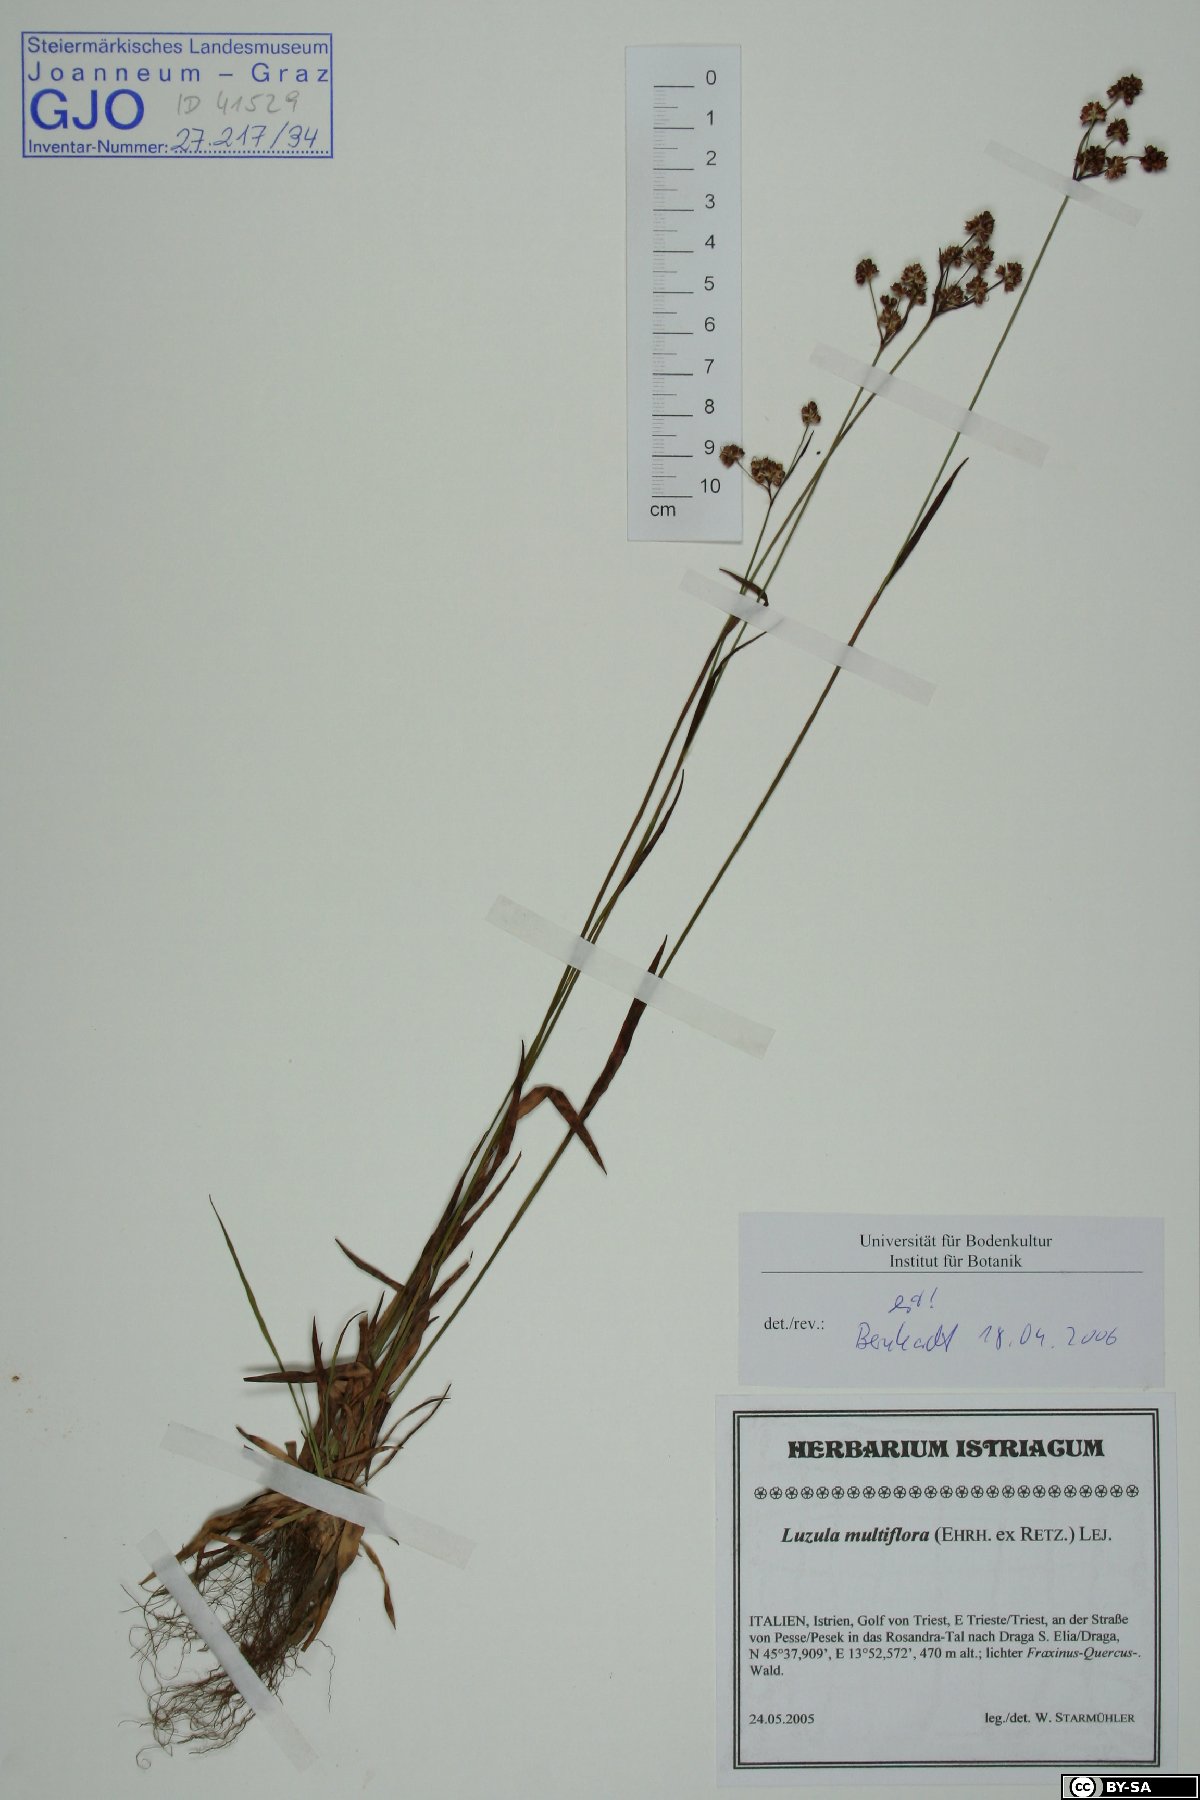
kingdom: Plantae
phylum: Tracheophyta
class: Liliopsida
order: Poales
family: Juncaceae
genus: Luzula
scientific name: Luzula multiflora
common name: Heath wood-rush
